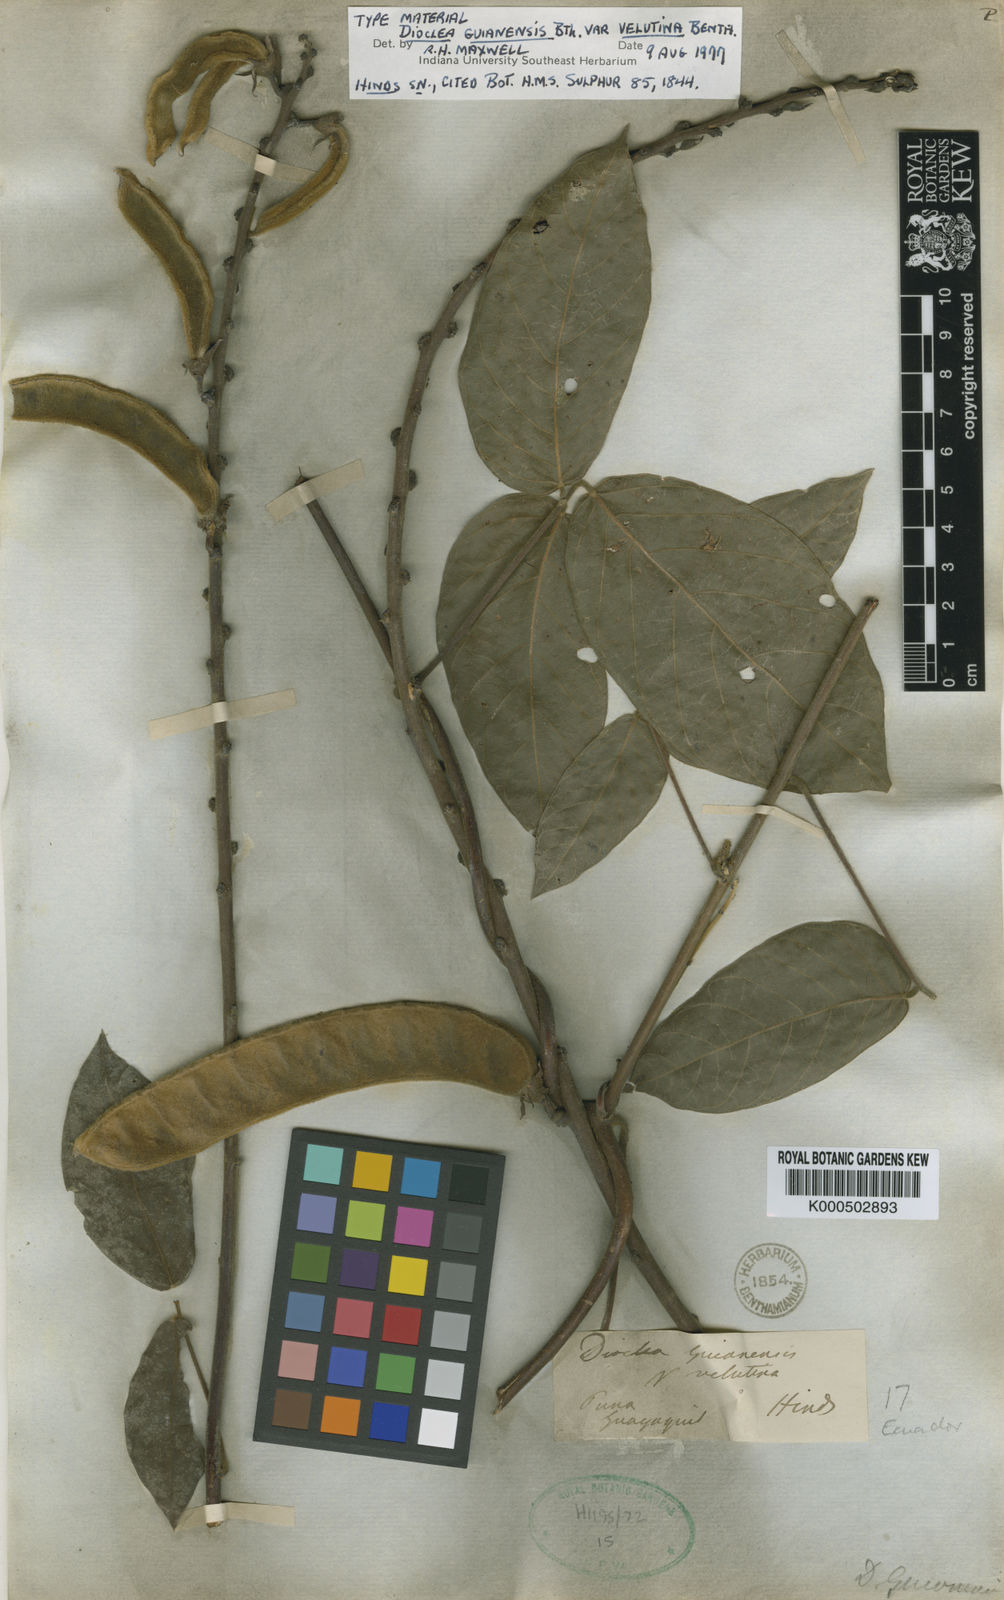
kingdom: Plantae
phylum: Tracheophyta
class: Magnoliopsida
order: Fabales
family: Fabaceae
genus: Dioclea
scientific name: Dioclea guianensis
